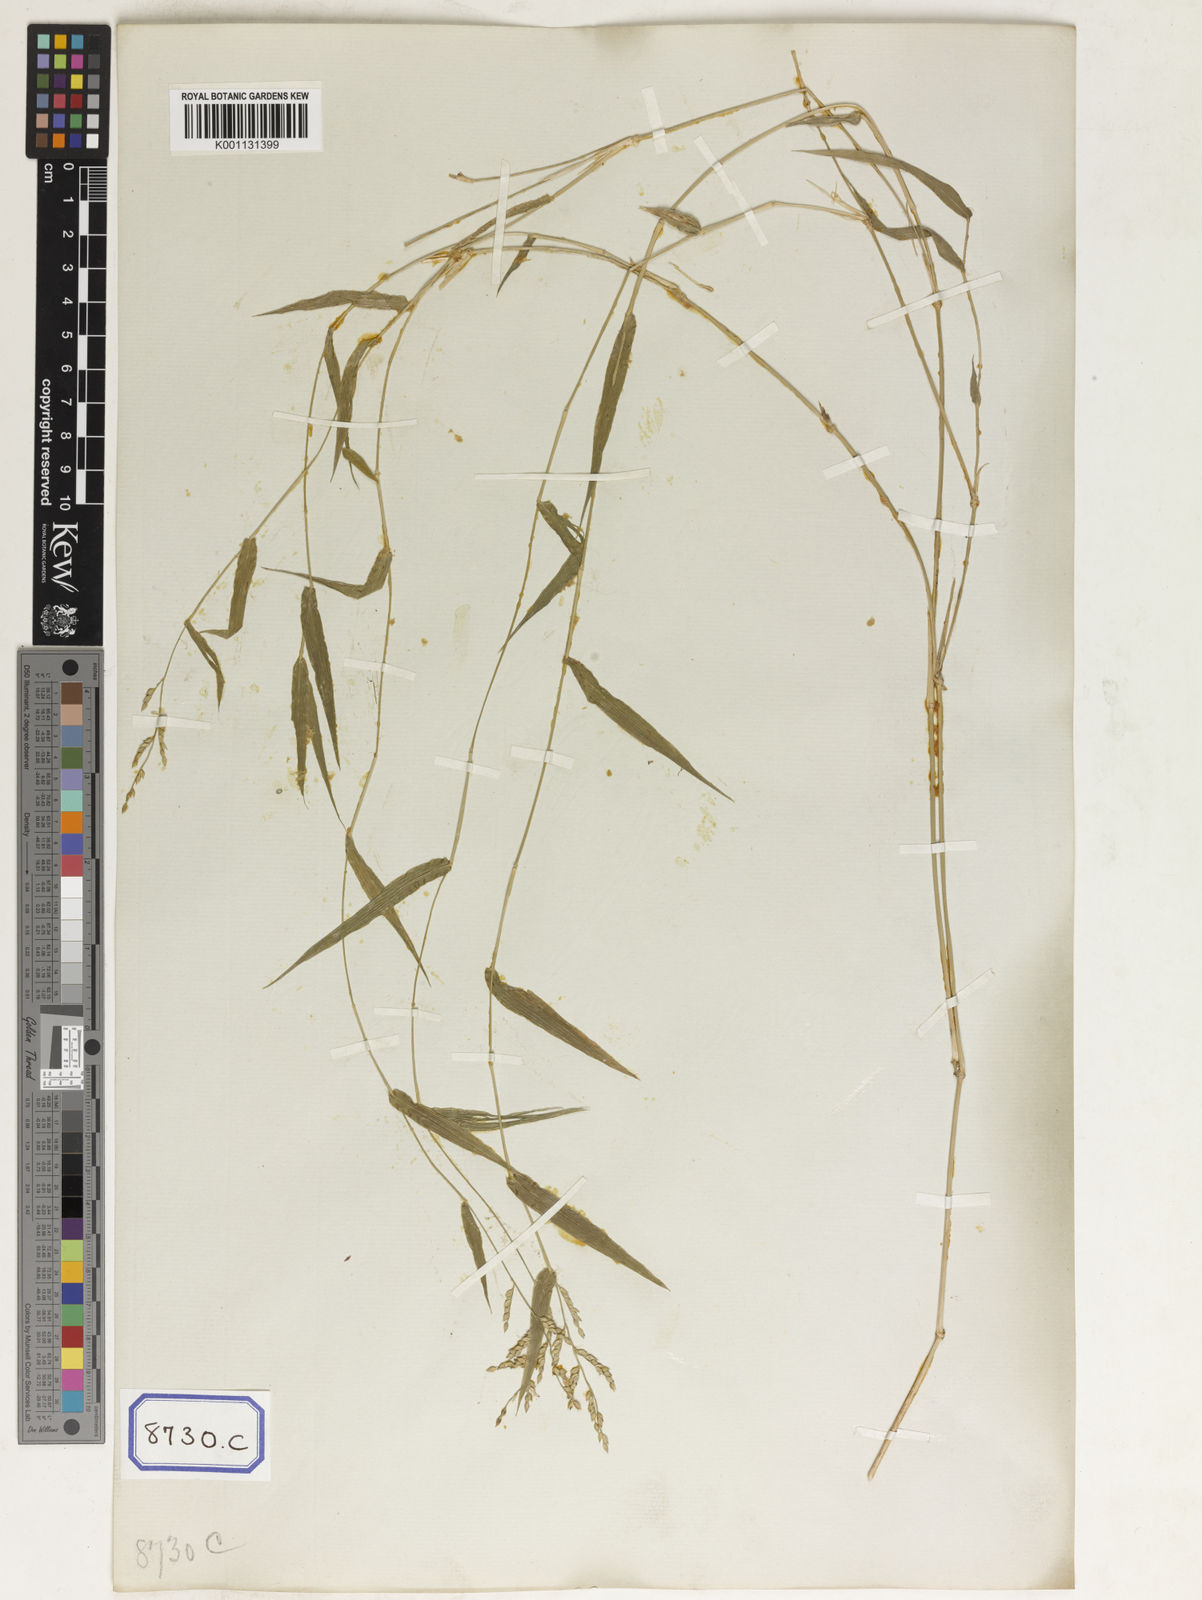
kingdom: Plantae
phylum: Tracheophyta
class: Liliopsida
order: Poales
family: Poaceae
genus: Panicum
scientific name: Panicum
